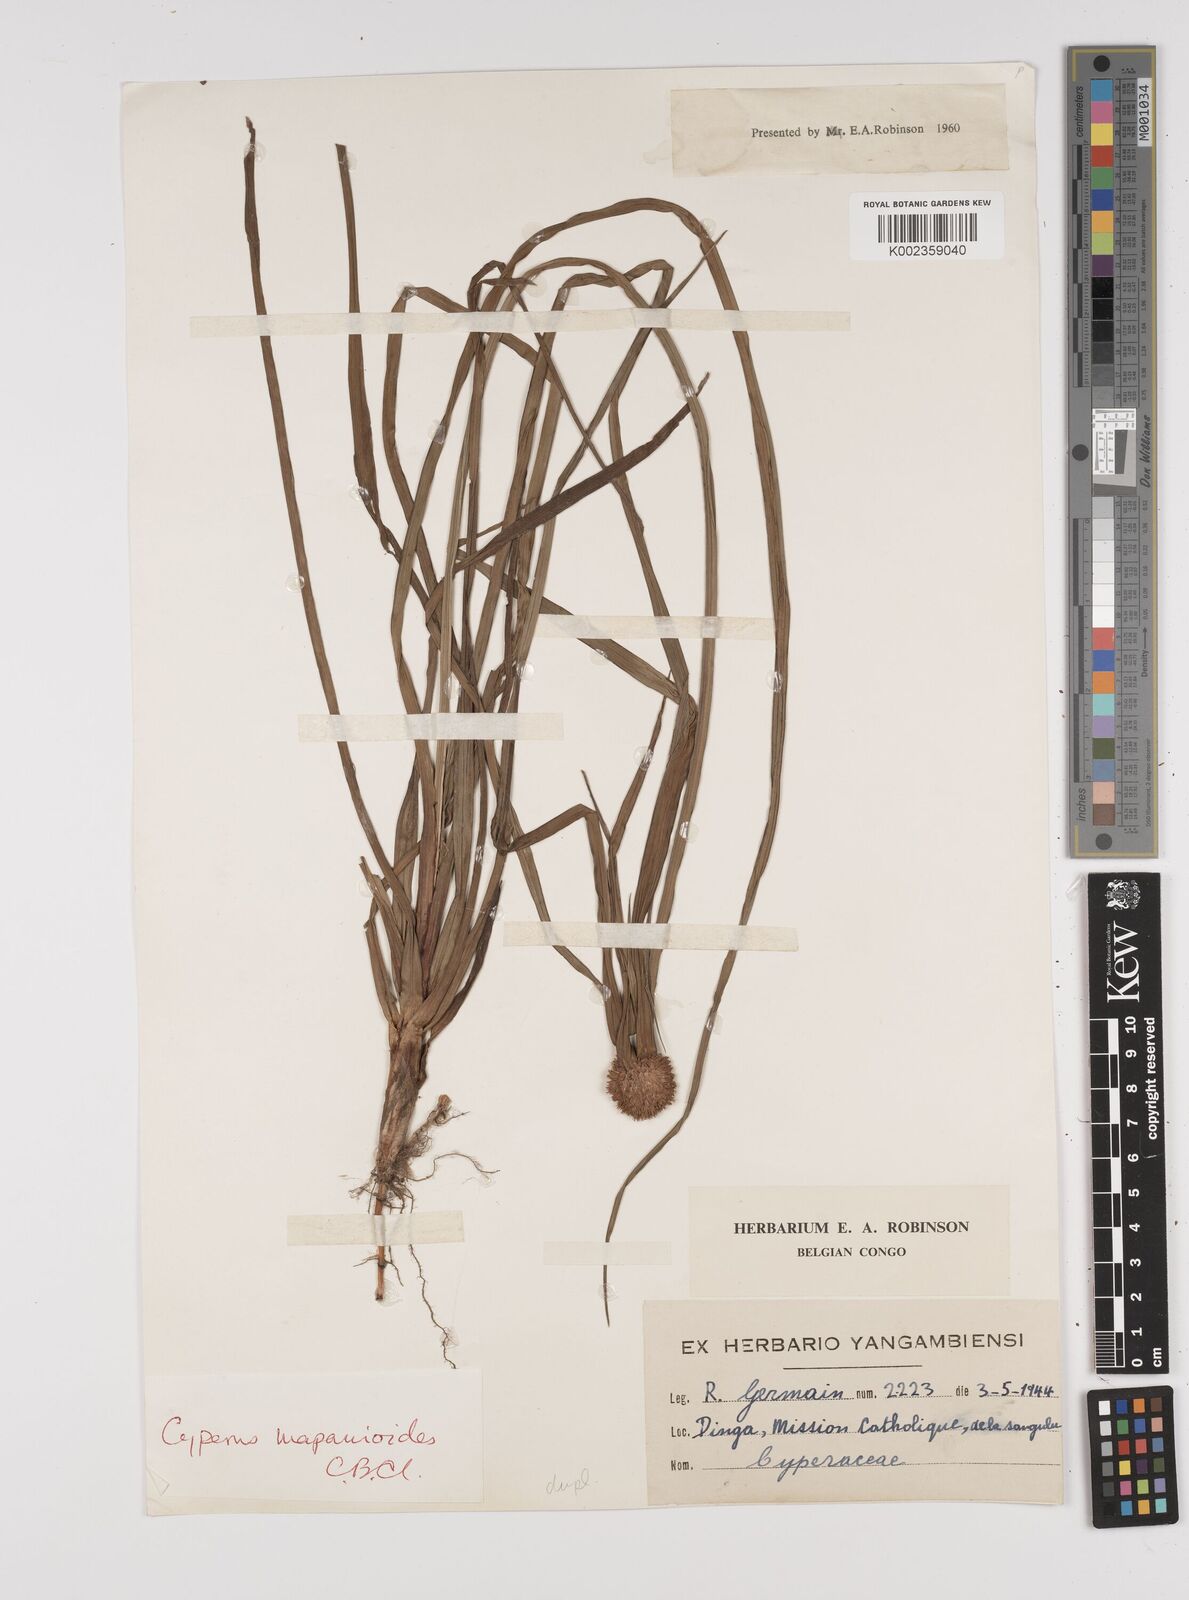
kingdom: Plantae
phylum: Tracheophyta
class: Liliopsida
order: Poales
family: Cyperaceae
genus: Cyperus
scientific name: Cyperus mapanioides
